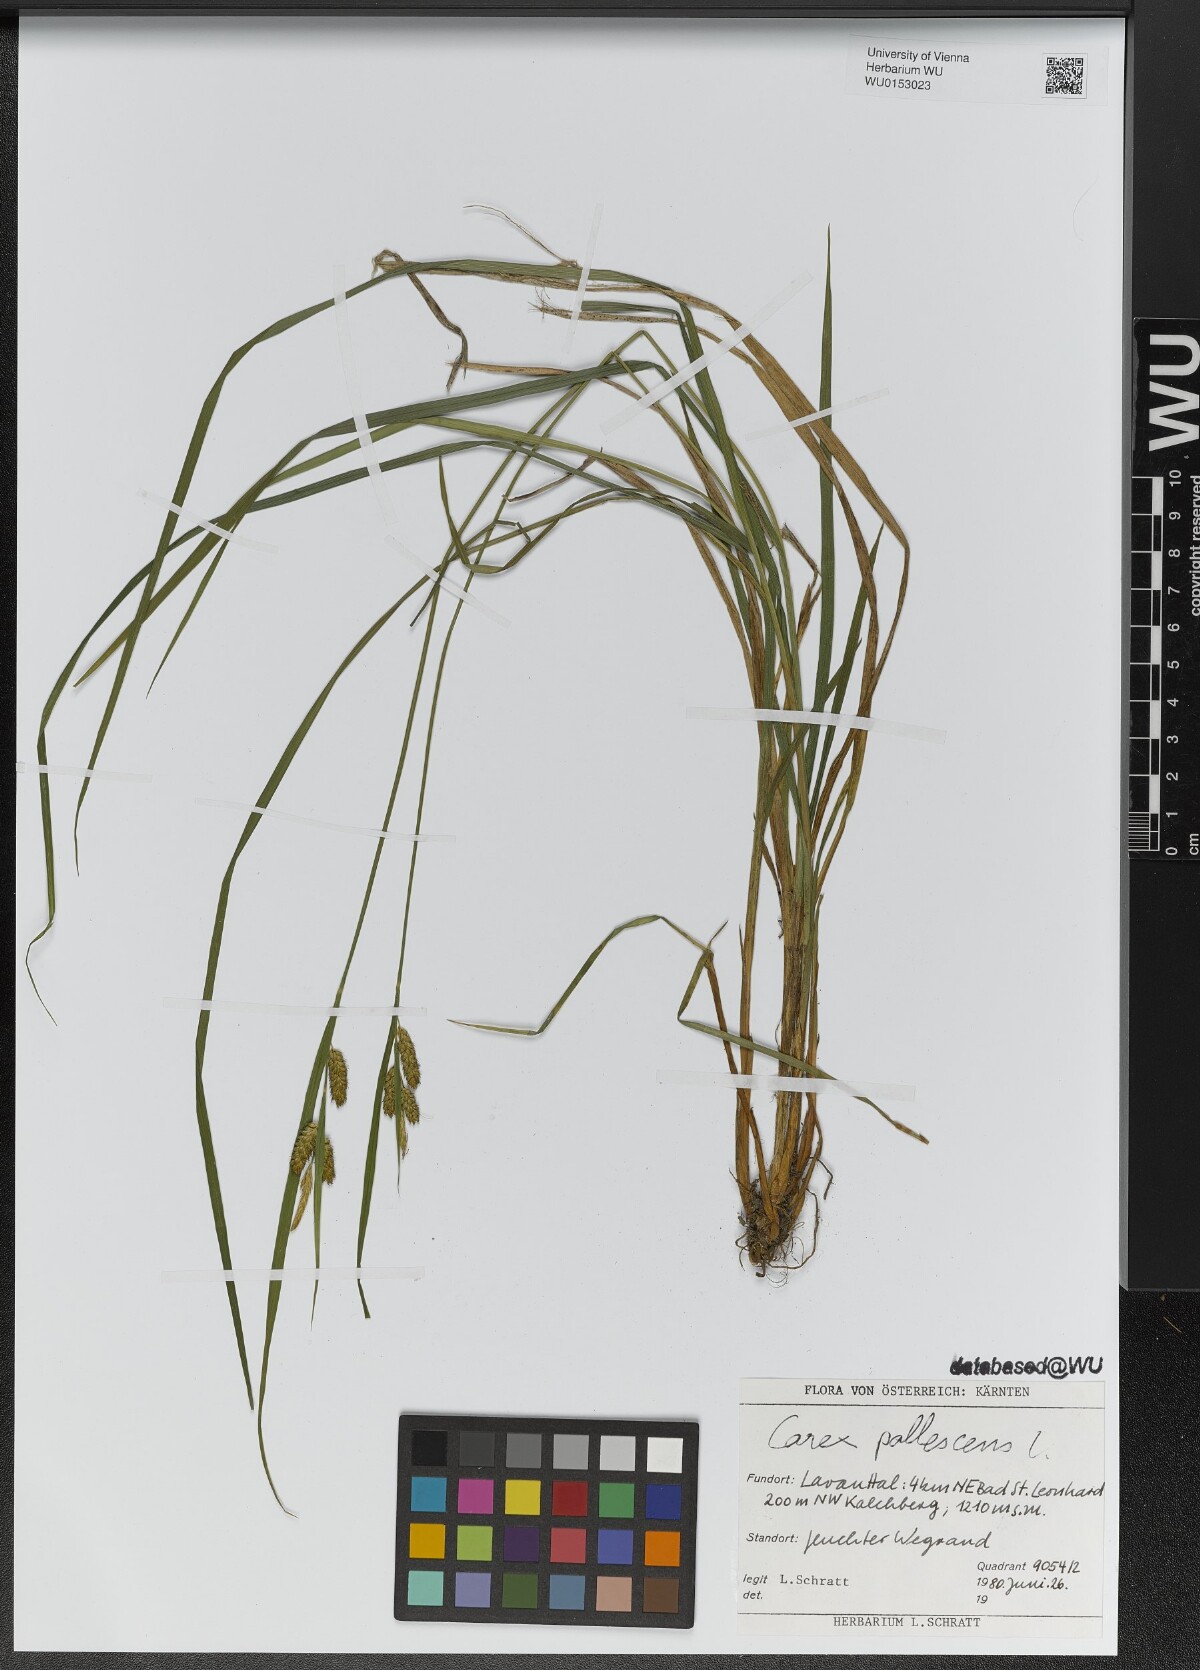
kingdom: Plantae
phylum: Tracheophyta
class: Liliopsida
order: Poales
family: Cyperaceae
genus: Carex
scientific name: Carex pallescens
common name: Pale sedge
